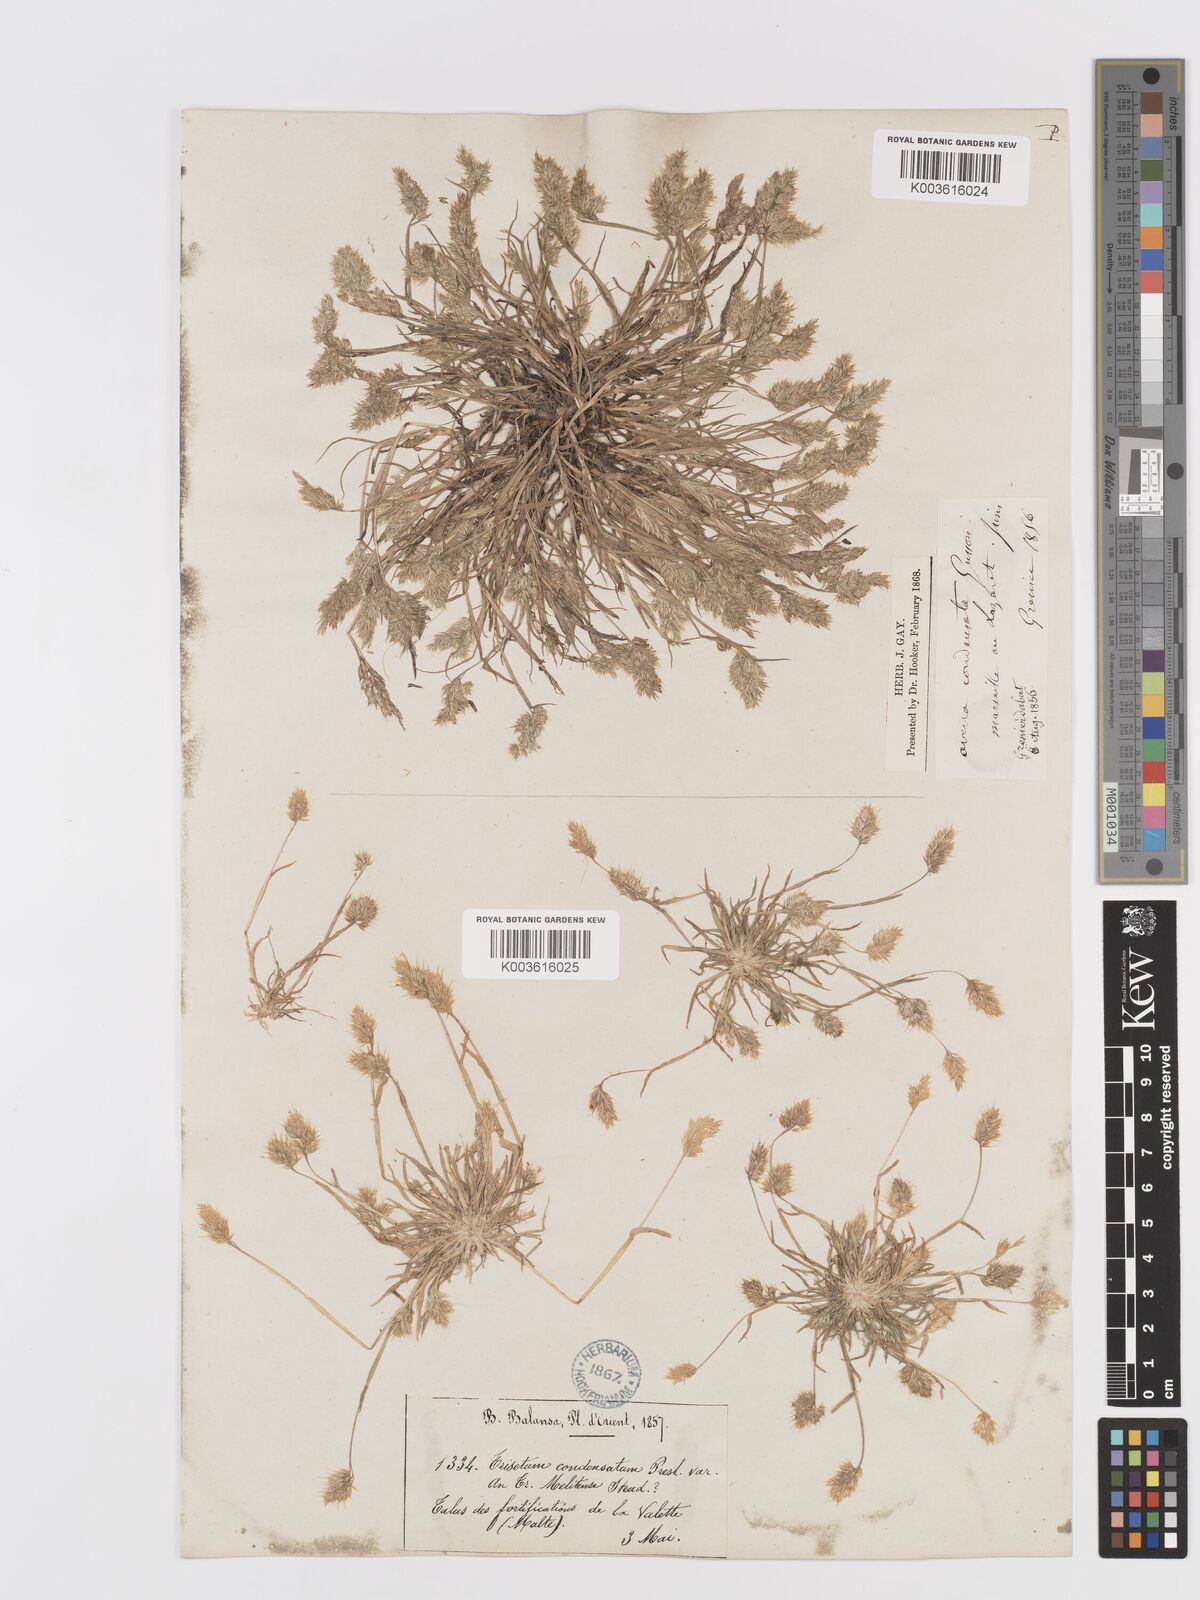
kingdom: Plantae
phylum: Tracheophyta
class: Liliopsida
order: Poales
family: Poaceae
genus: Trisetaria
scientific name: Trisetaria aurea
